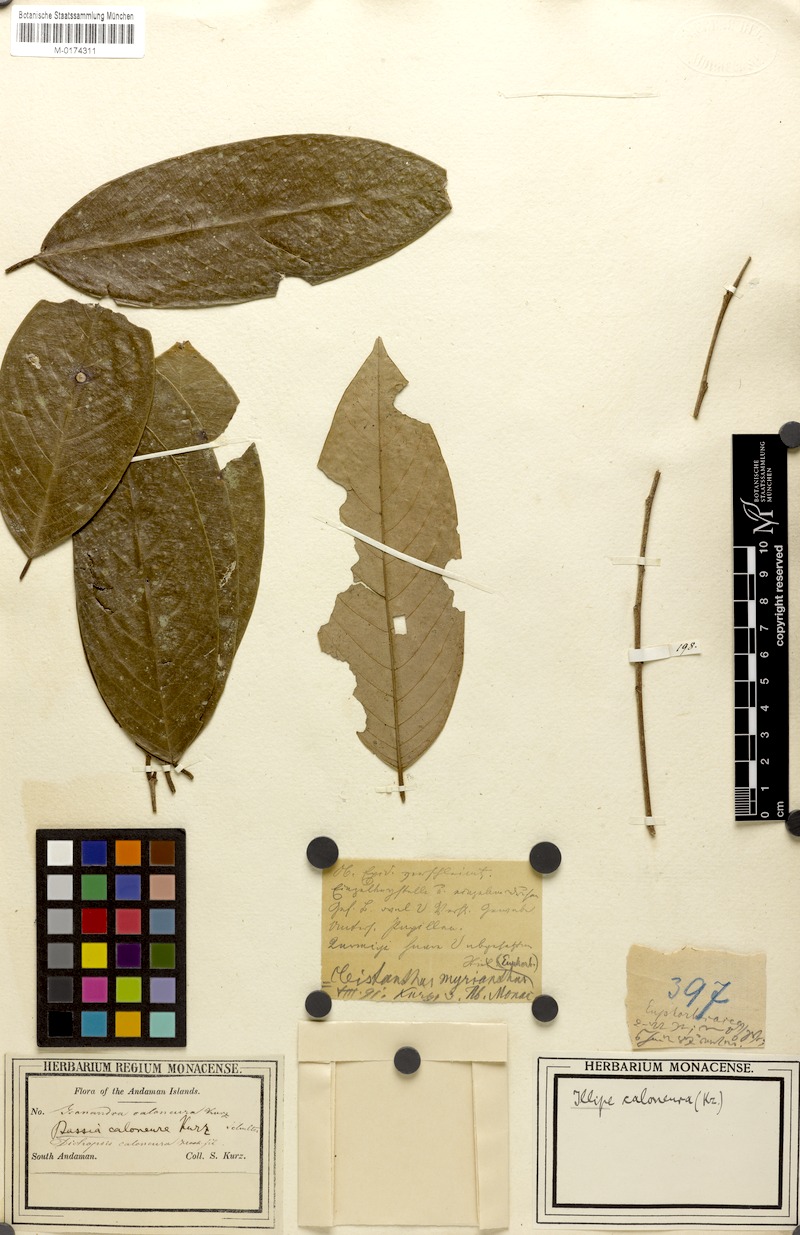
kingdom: Plantae
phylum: Tracheophyta
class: Magnoliopsida
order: Malpighiales
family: Phyllanthaceae
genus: Cleistanthus
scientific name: Cleistanthus oblongifolius
